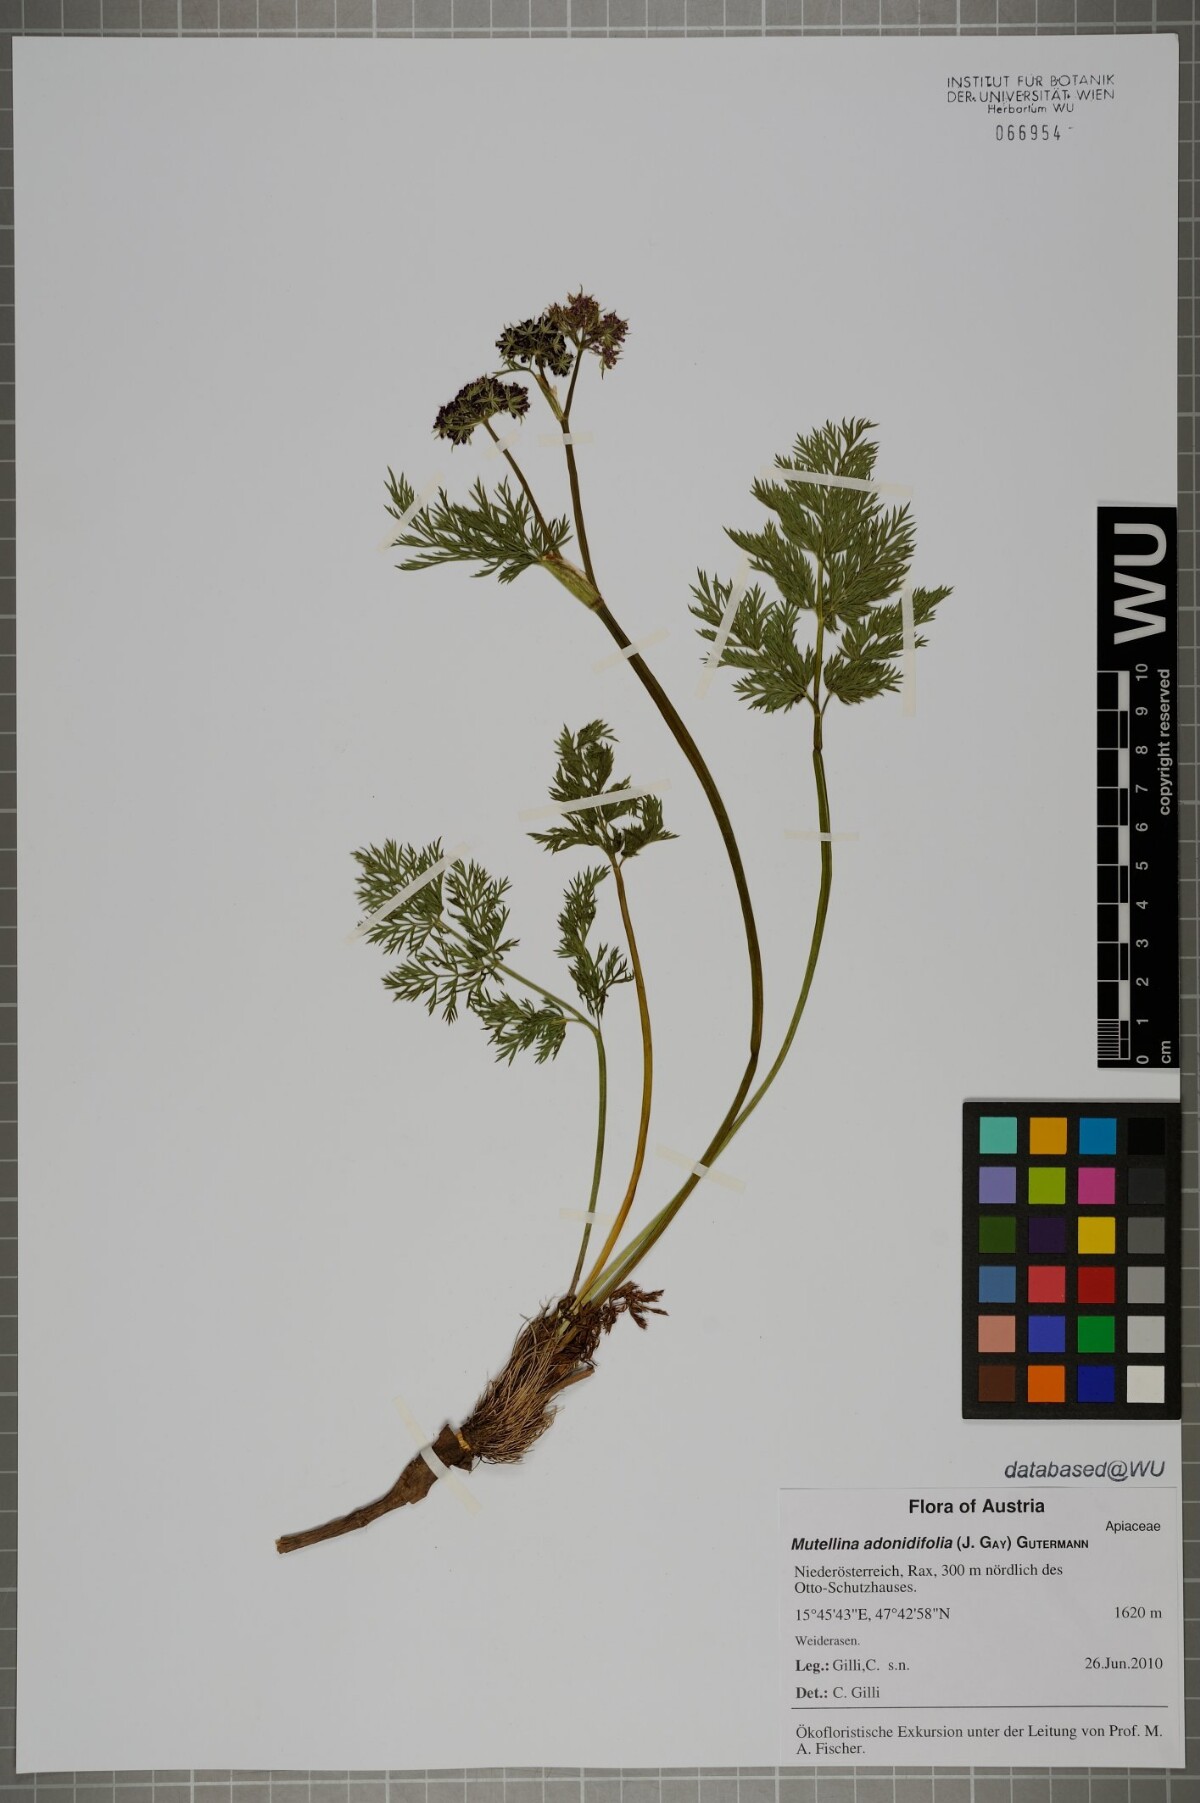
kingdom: Plantae
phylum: Tracheophyta
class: Magnoliopsida
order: Apiales
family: Apiaceae
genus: Mutellina
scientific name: Mutellina adonidifolia
